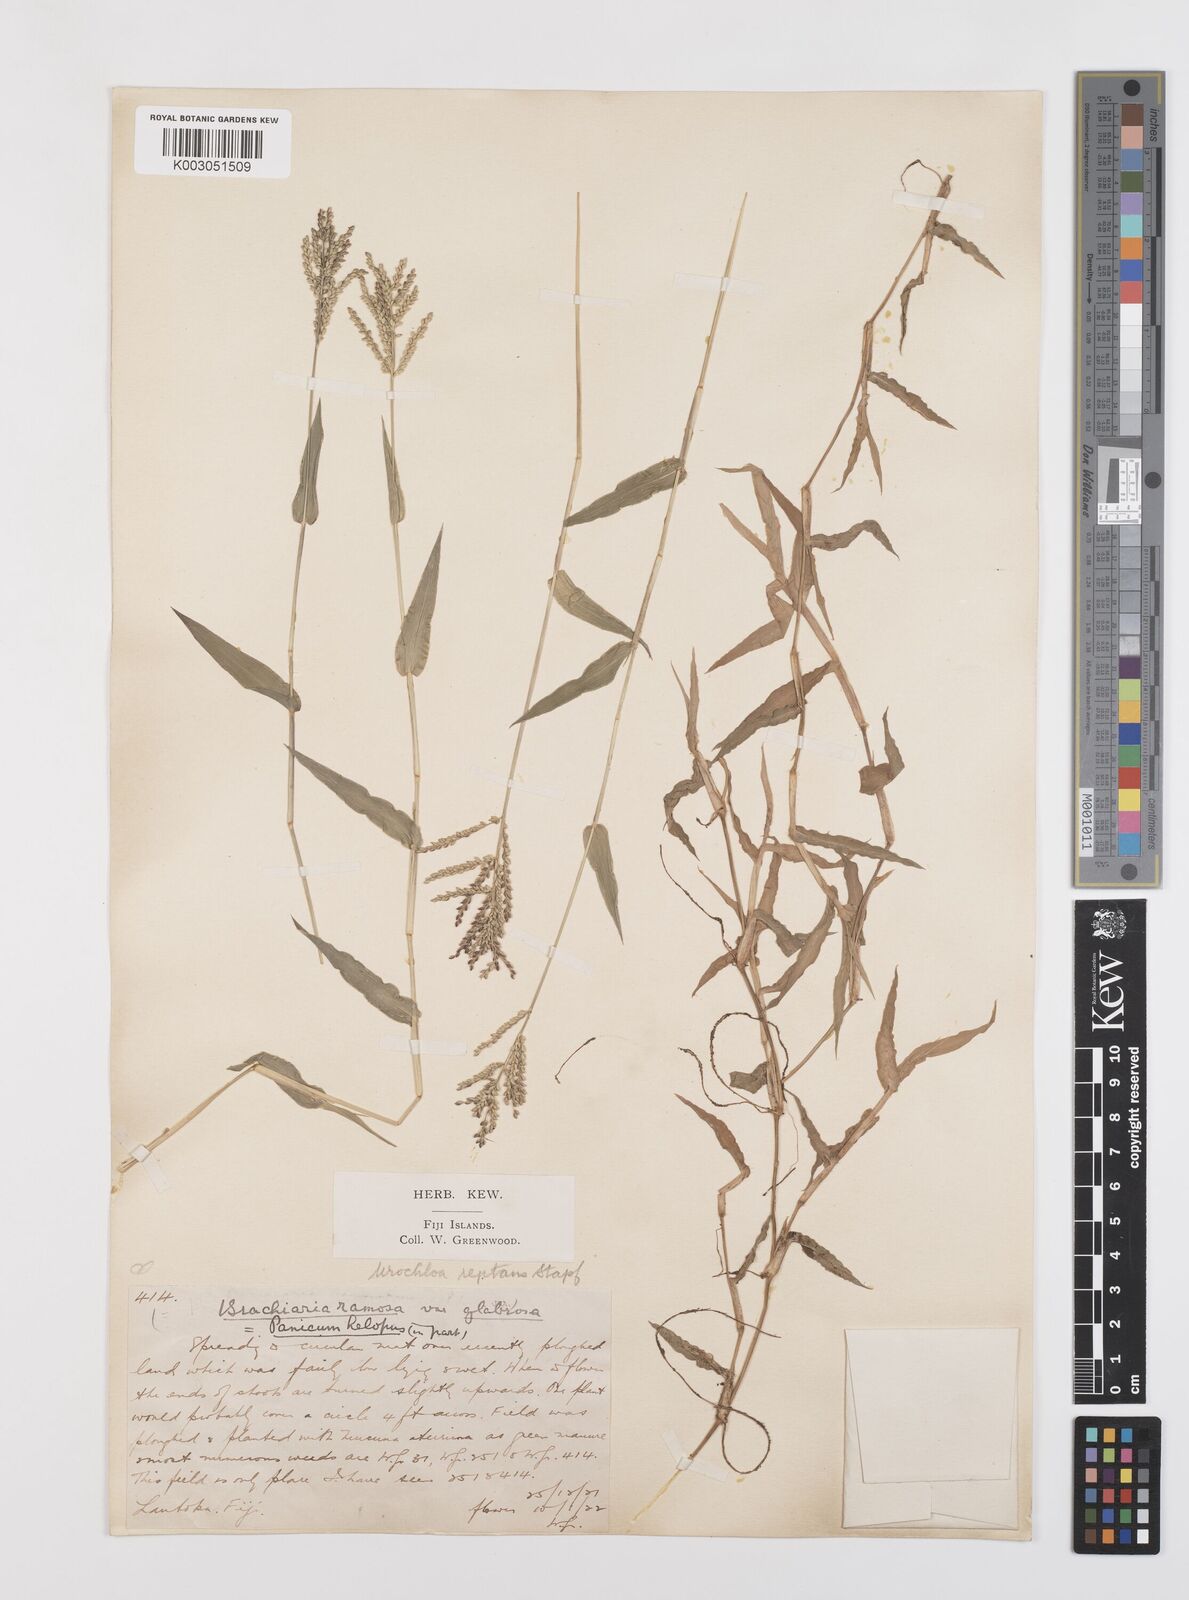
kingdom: Plantae
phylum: Tracheophyta
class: Liliopsida
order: Poales
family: Poaceae
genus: Urochloa
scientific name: Urochloa reptans
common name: Sprawling signalgrass
